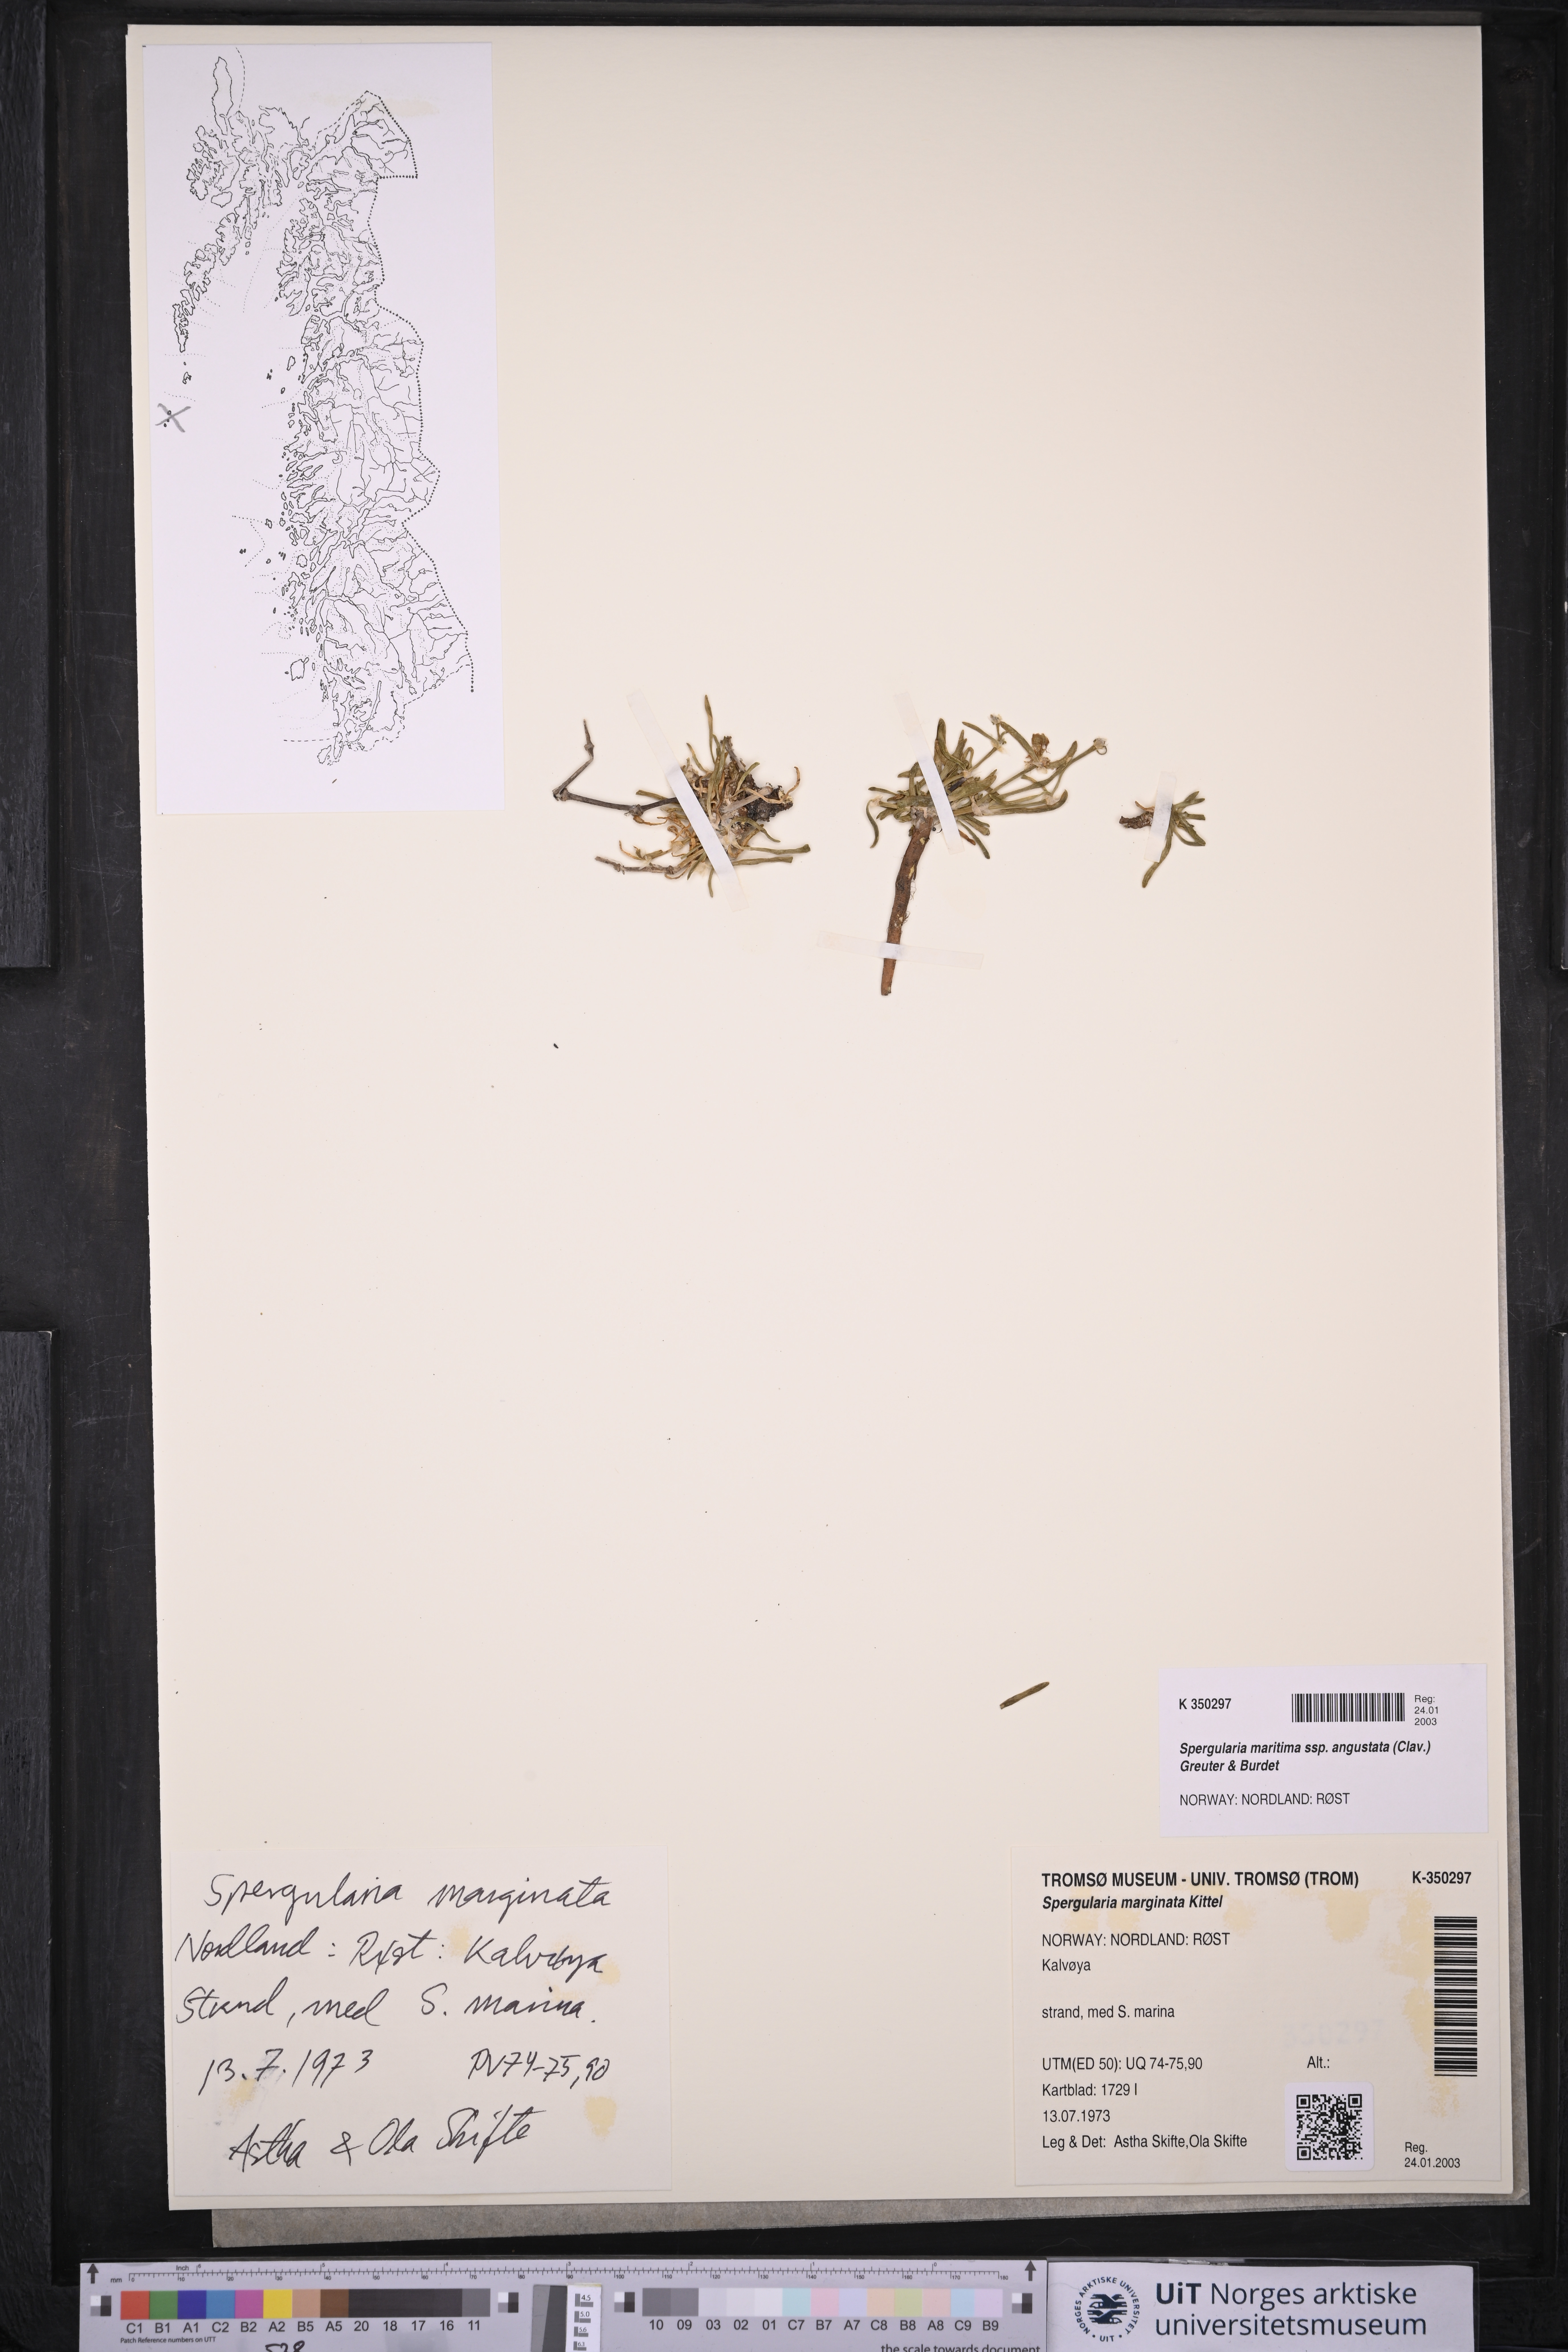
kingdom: Plantae
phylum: Tracheophyta
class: Magnoliopsida
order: Caryophyllales
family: Caryophyllaceae
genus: Spergularia
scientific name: Spergularia media
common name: Greater sea-spurrey
